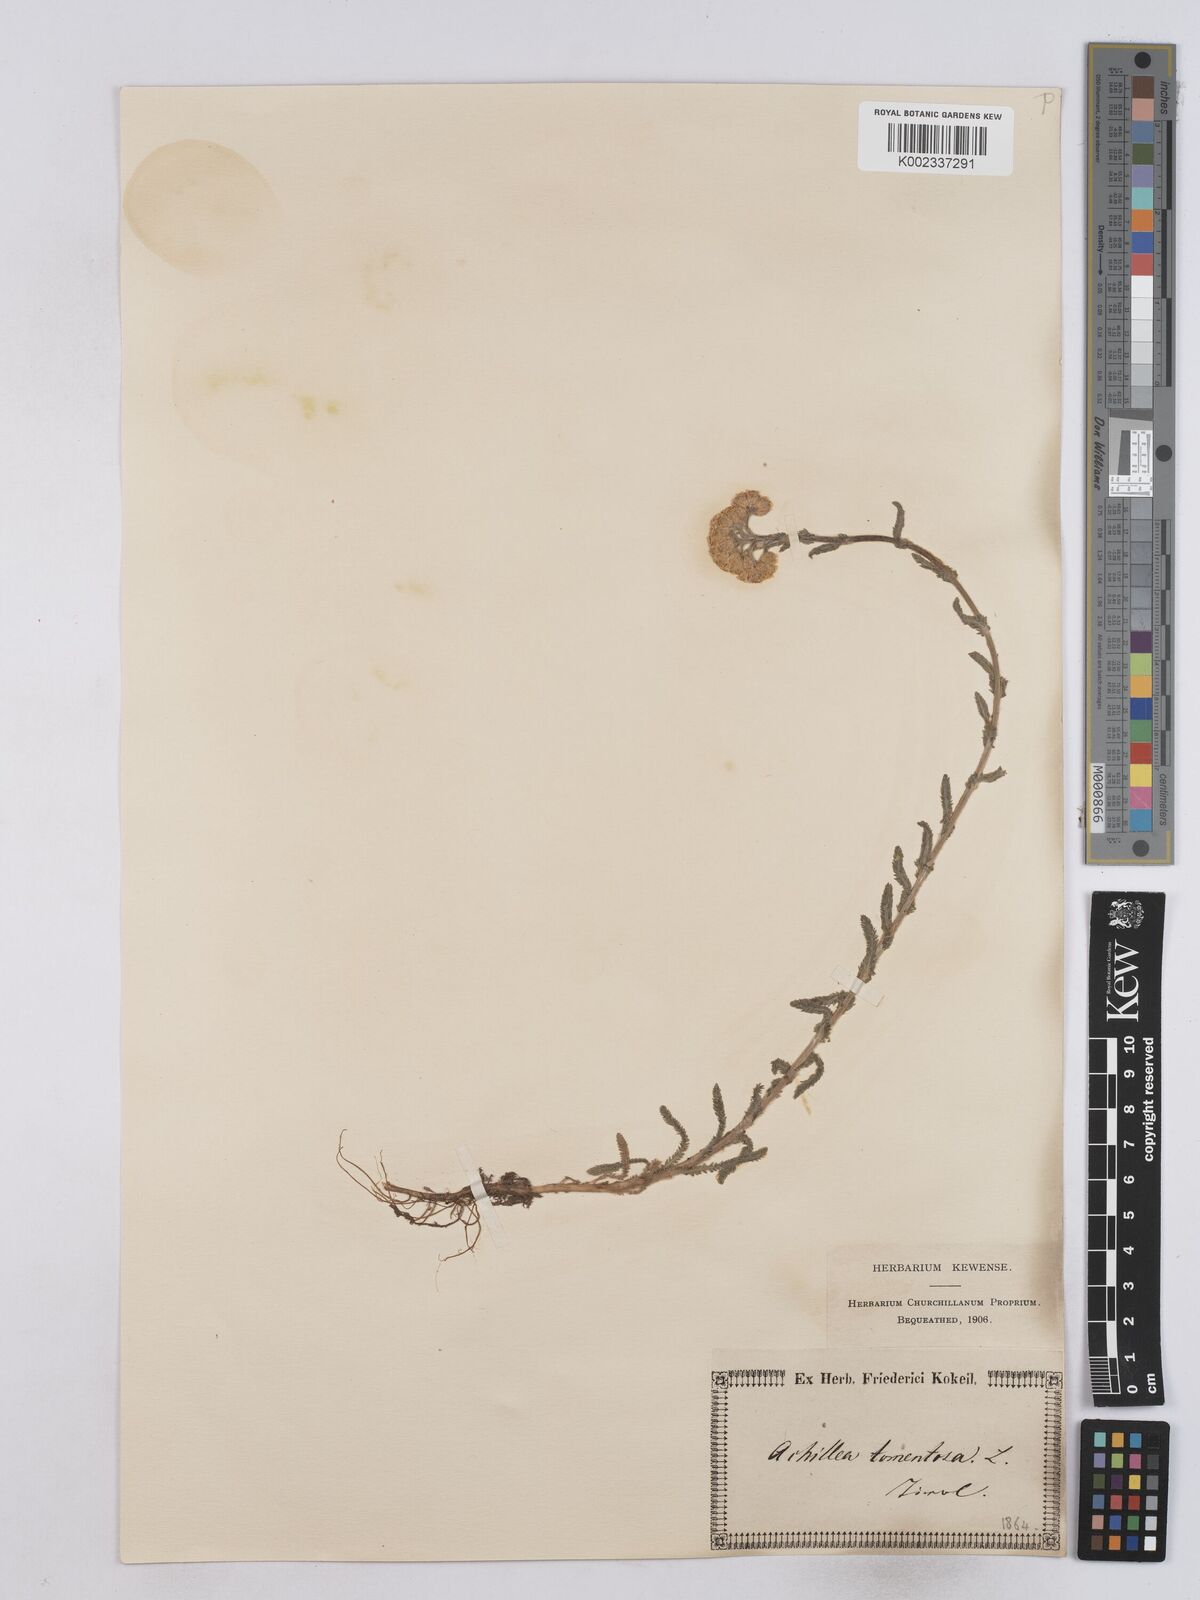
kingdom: Plantae
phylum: Tracheophyta
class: Magnoliopsida
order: Asterales
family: Asteraceae
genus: Achillea
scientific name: Achillea tomentosa
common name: Yellow milfoil
